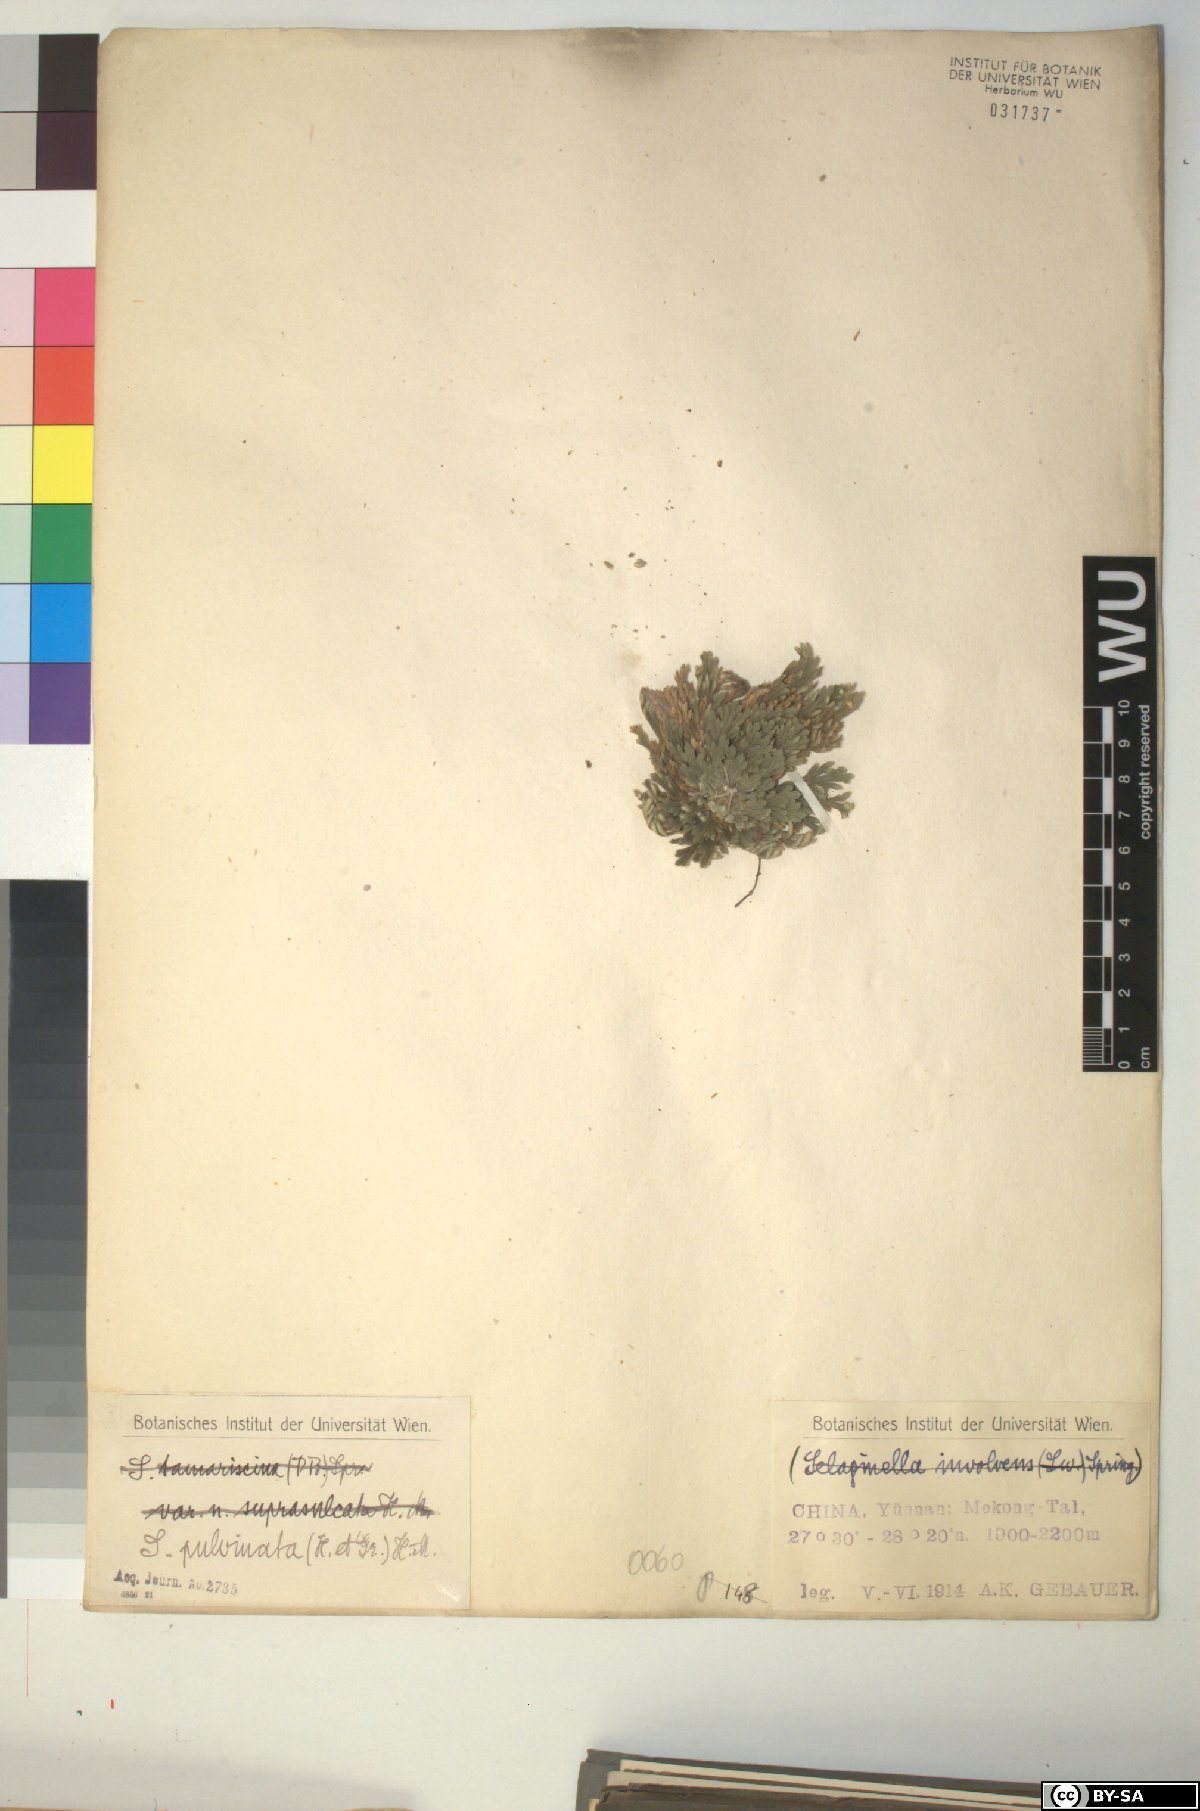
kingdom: Plantae
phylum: Tracheophyta
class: Lycopodiopsida
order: Selaginellales
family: Selaginellaceae
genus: Selaginella
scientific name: Selaginella pulvinata
